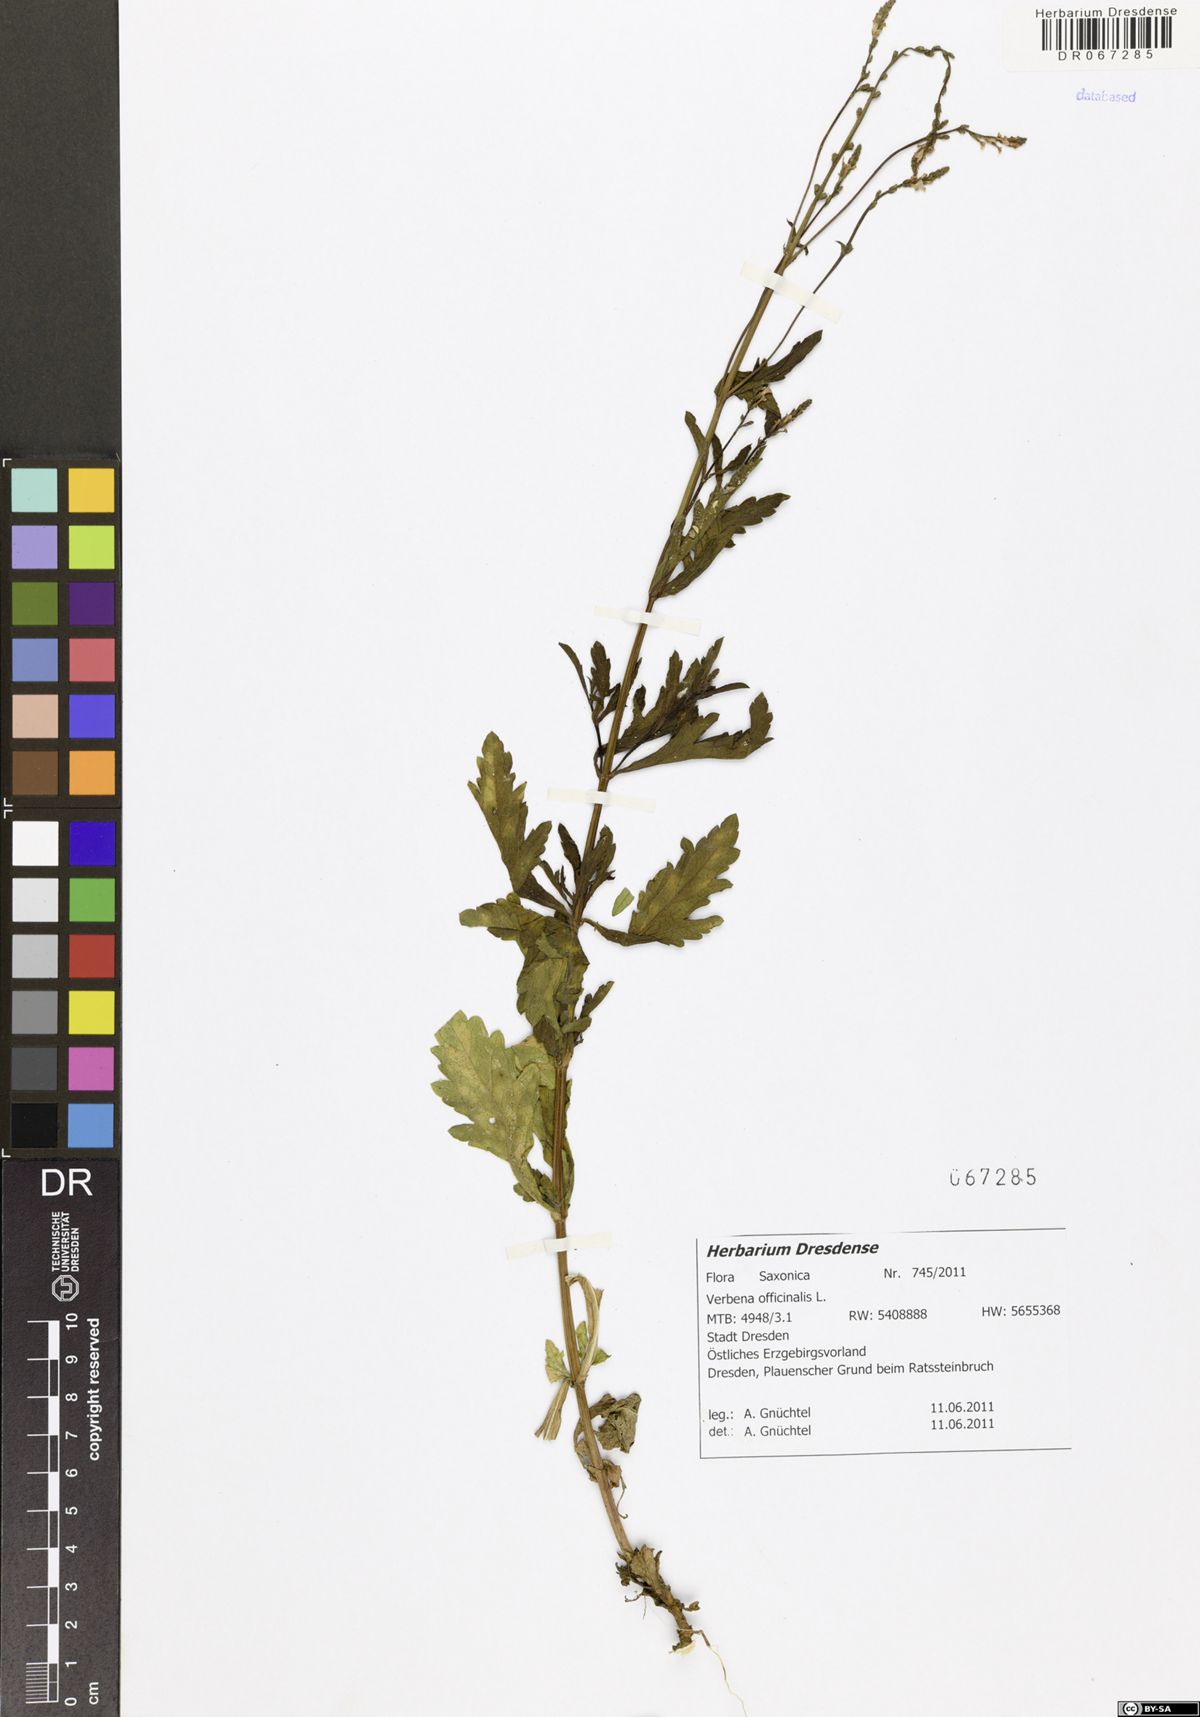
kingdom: Plantae
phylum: Tracheophyta
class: Magnoliopsida
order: Lamiales
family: Verbenaceae
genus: Verbena
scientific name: Verbena officinalis
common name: Vervain
